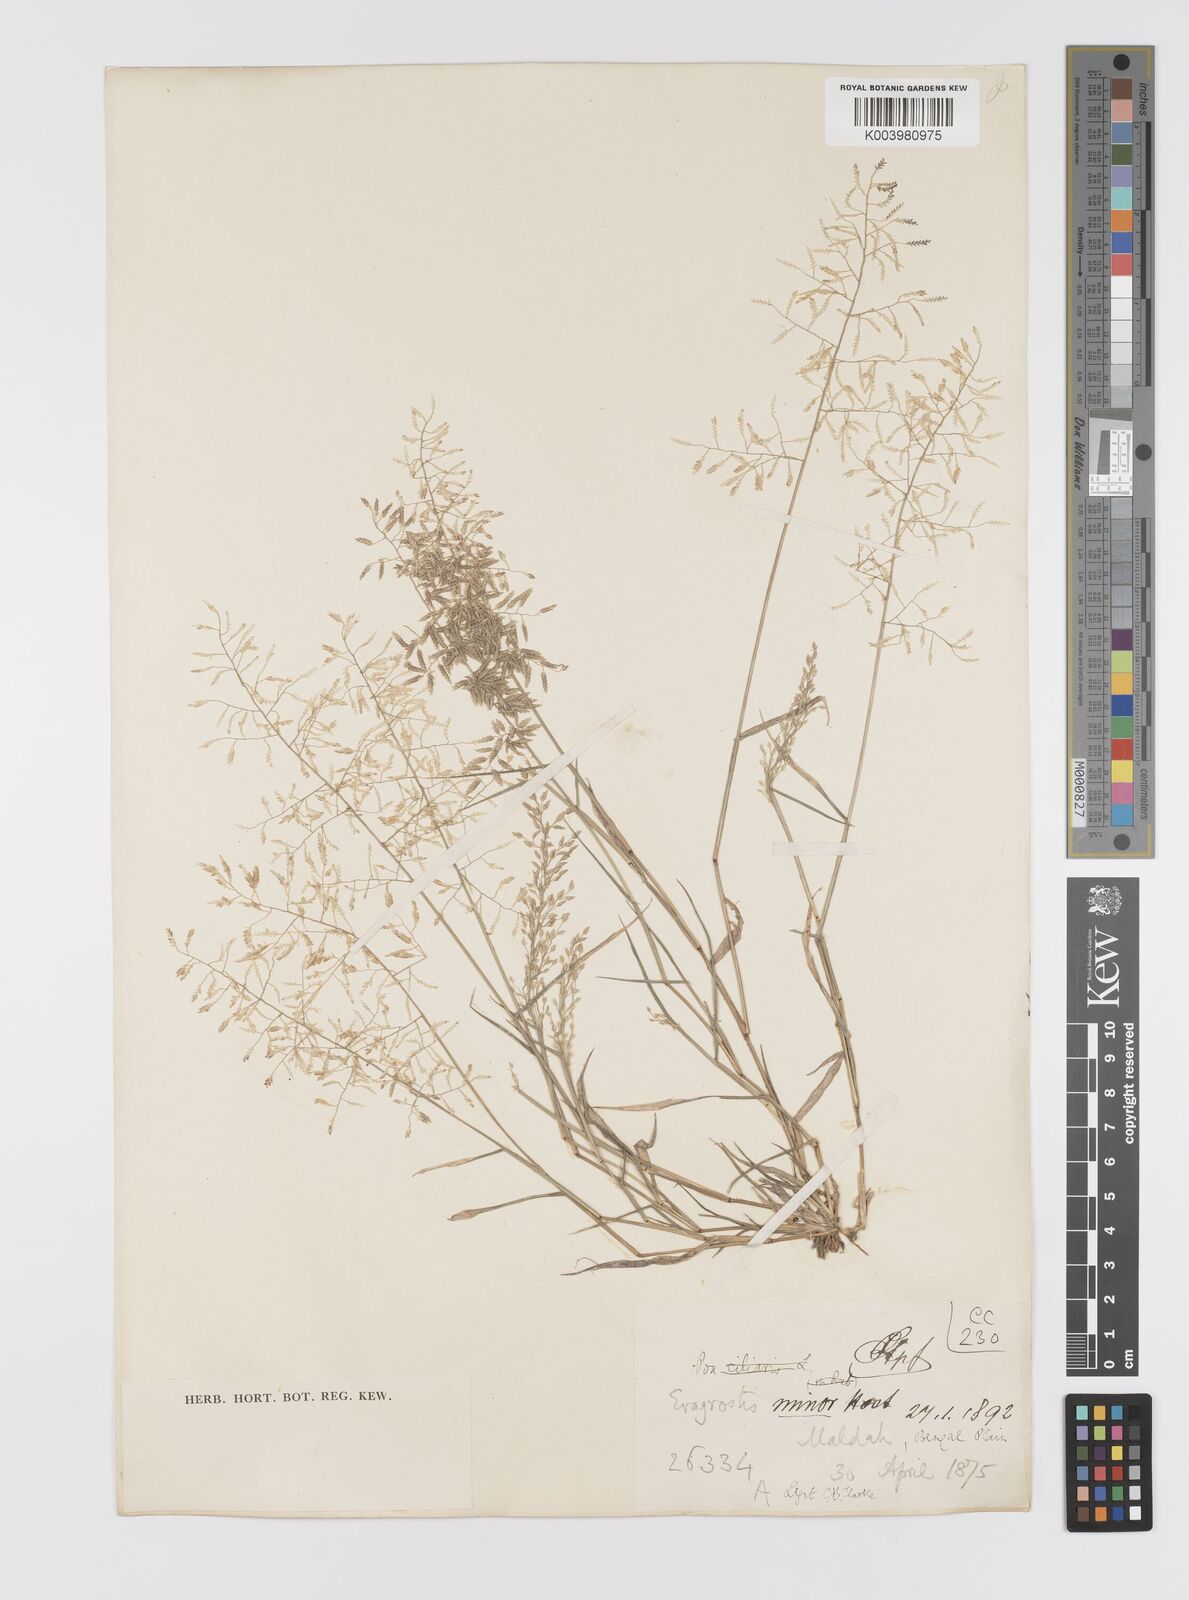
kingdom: Plantae
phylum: Tracheophyta
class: Liliopsida
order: Poales
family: Poaceae
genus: Eragrostis
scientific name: Eragrostis minor
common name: Small love-grass
